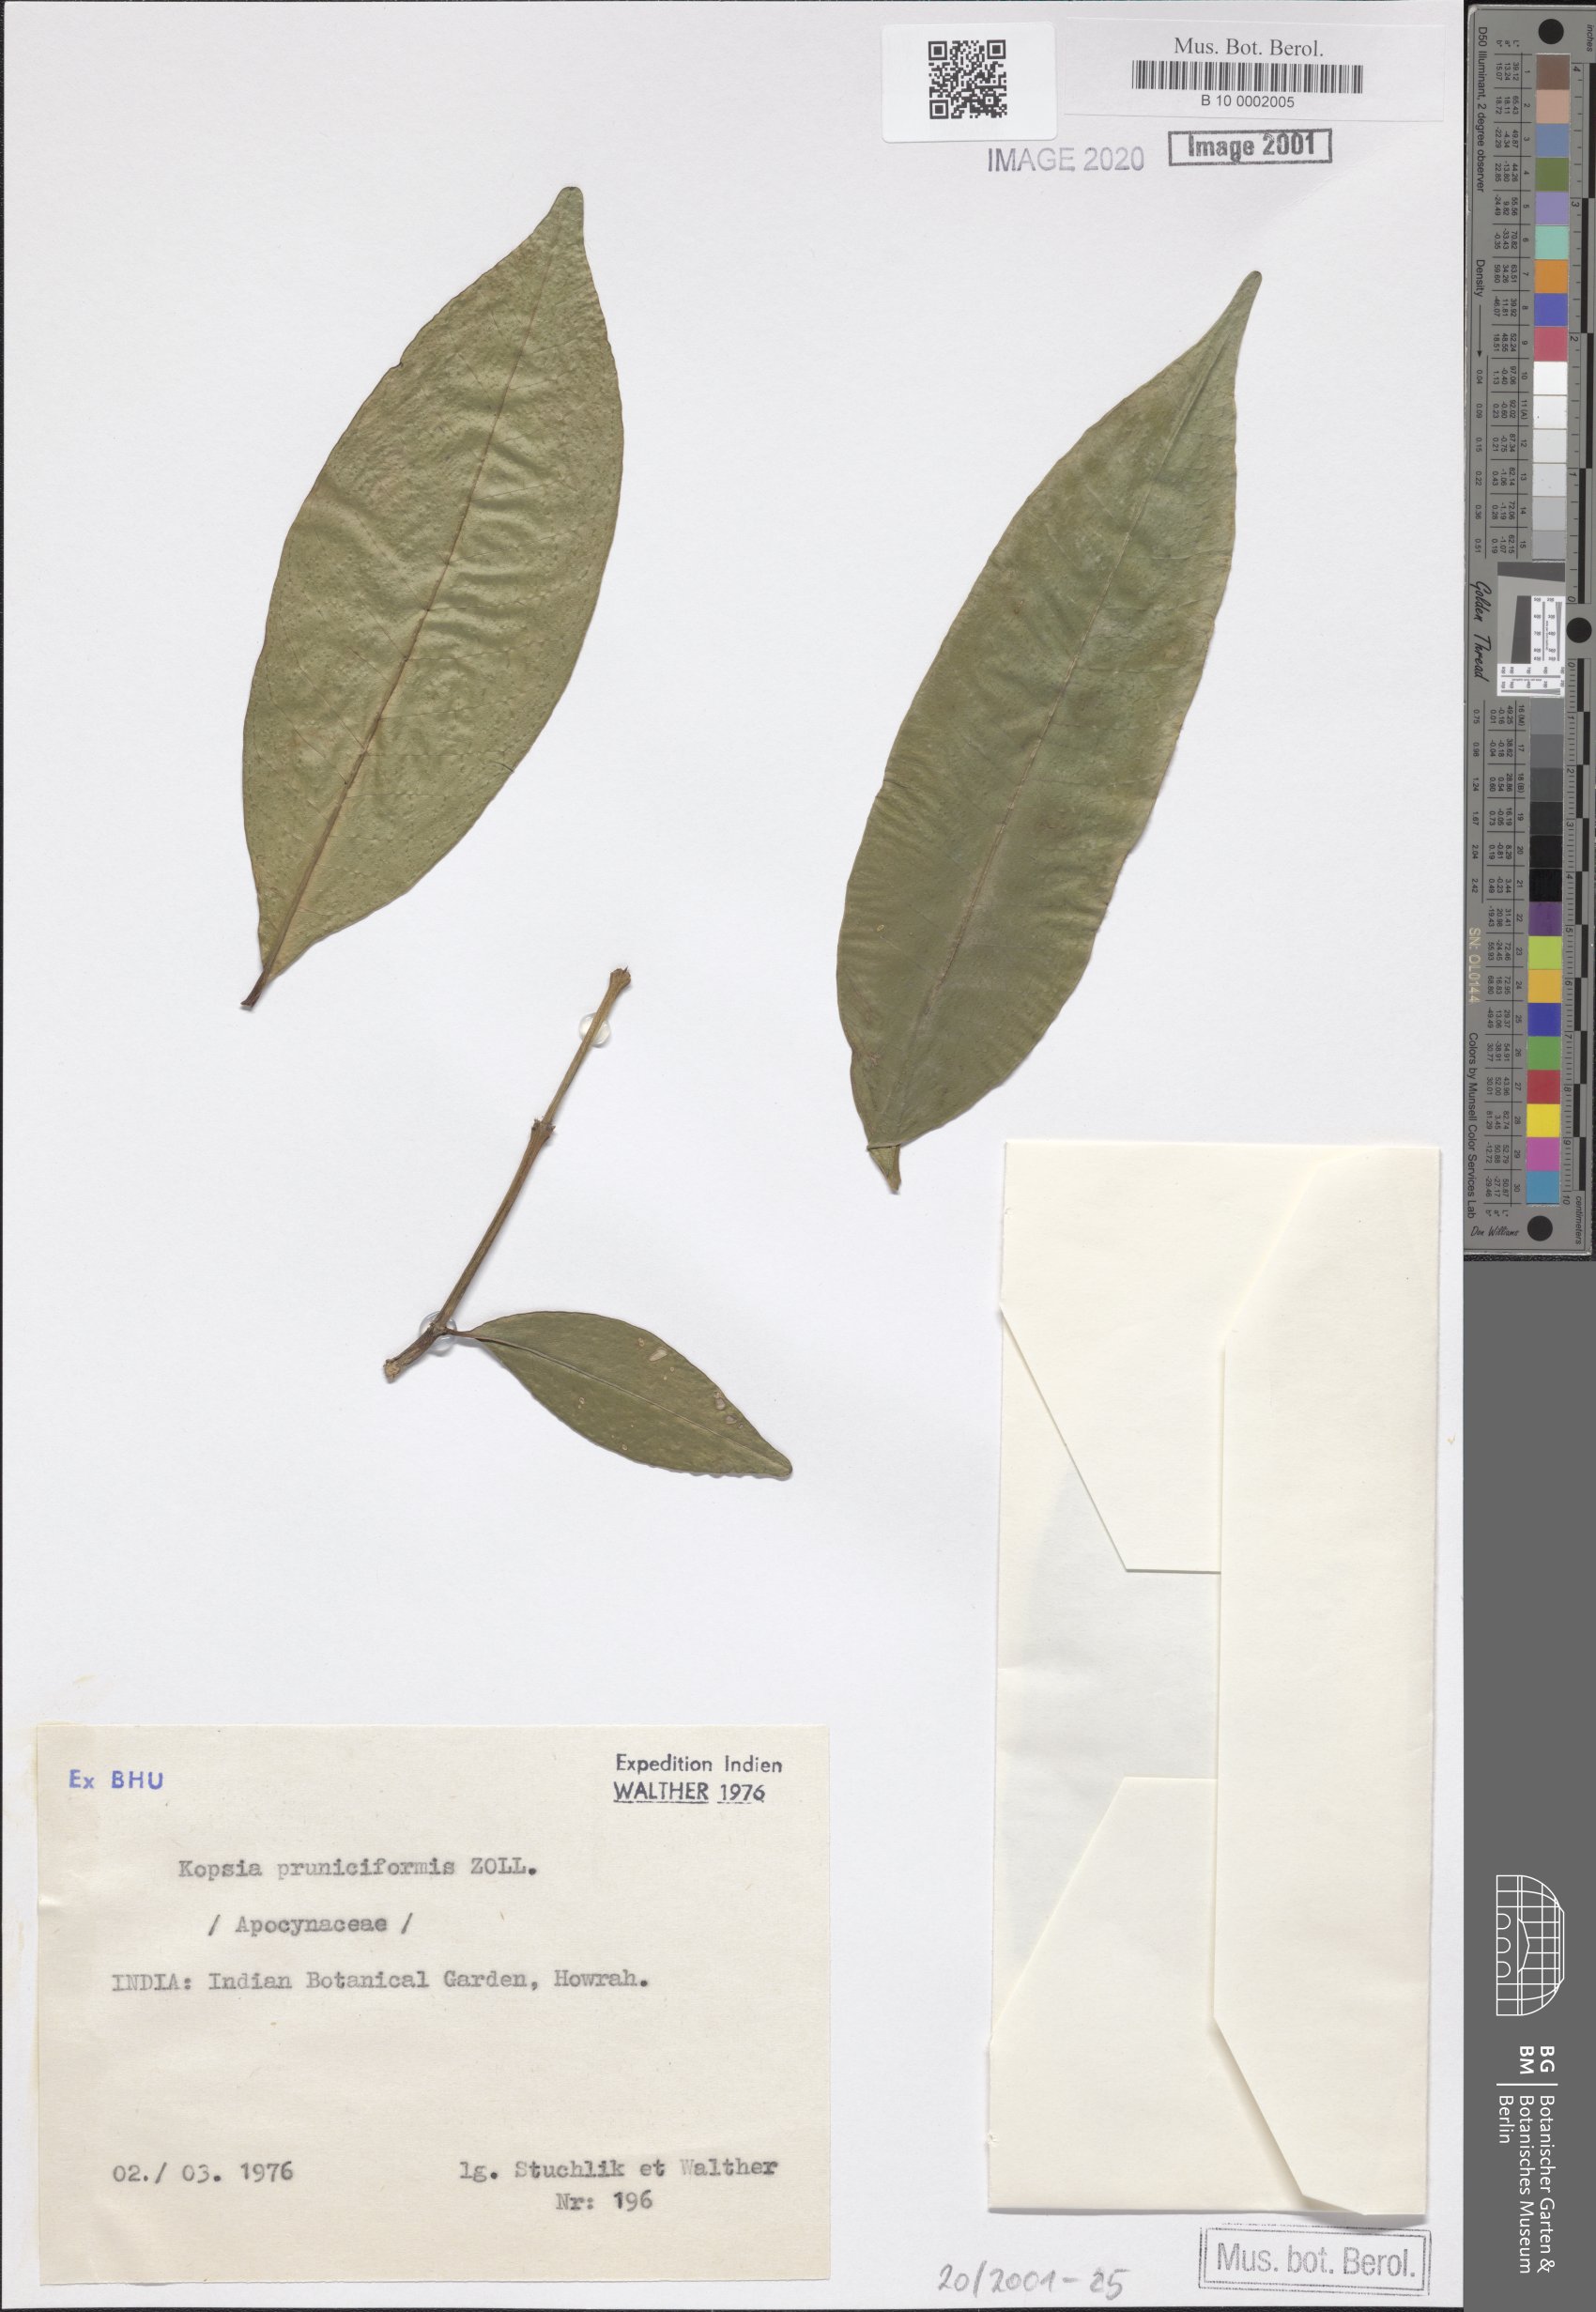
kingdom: Plantae
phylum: Tracheophyta
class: Magnoliopsida
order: Gentianales
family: Apocynaceae
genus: Kopsia
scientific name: Kopsia arborea
